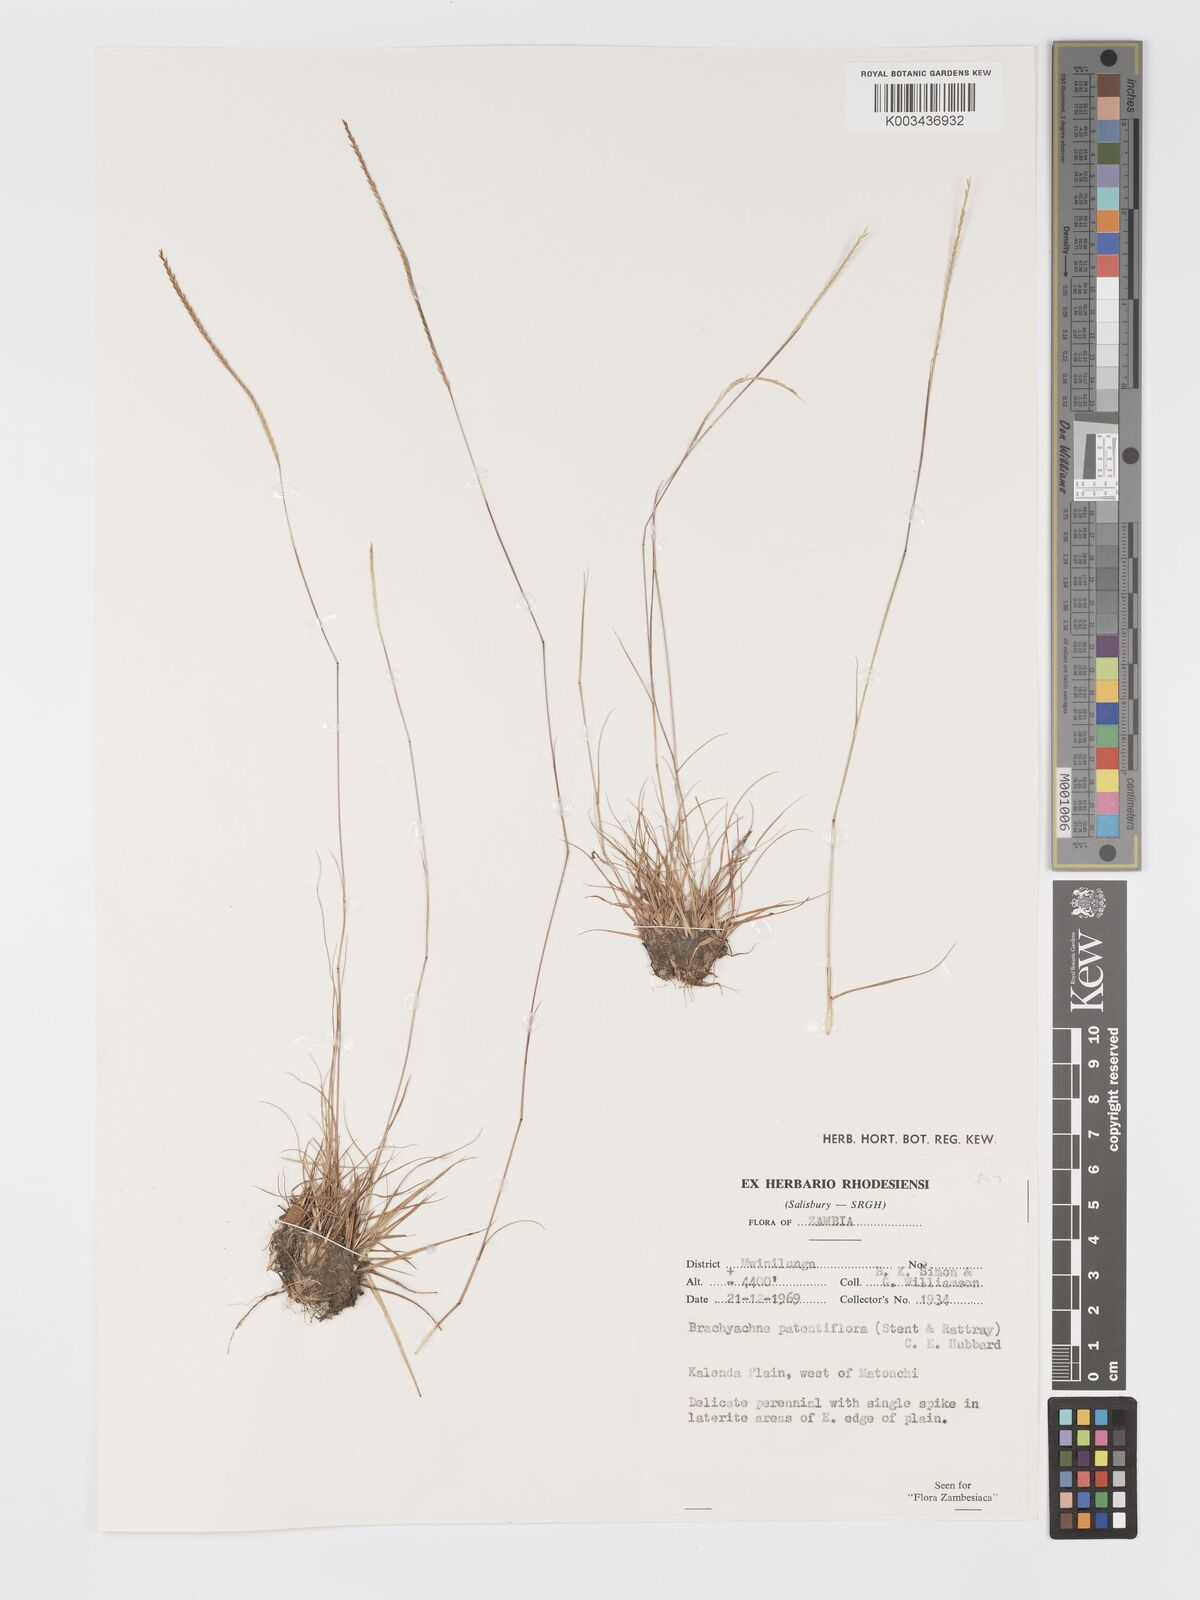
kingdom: Plantae
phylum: Tracheophyta
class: Liliopsida
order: Poales
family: Poaceae
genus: Micrachne
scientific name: Micrachne patentiflora
